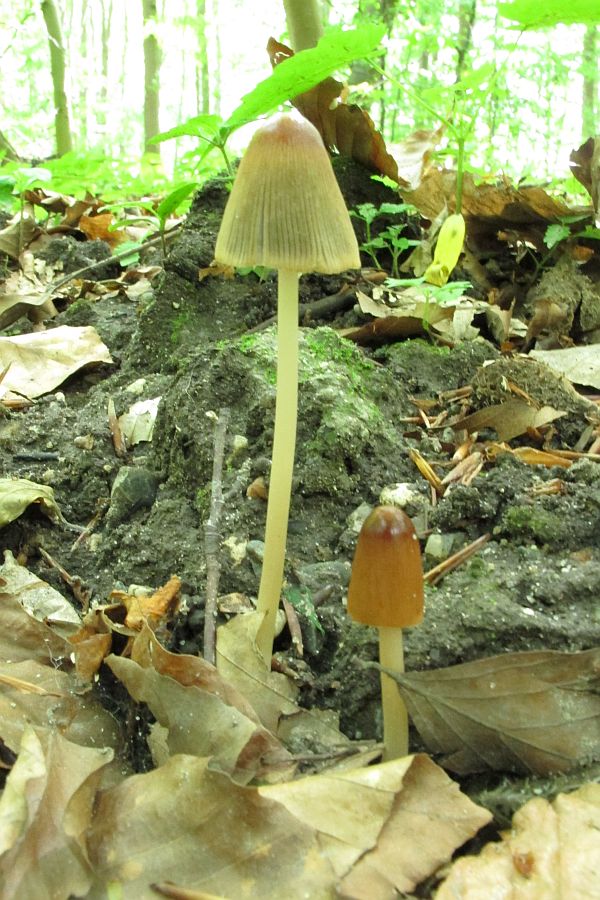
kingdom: Fungi
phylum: Basidiomycota
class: Agaricomycetes
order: Agaricales
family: Psathyrellaceae
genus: Parasola
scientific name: Parasola auricoma
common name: hansens hjulhat
